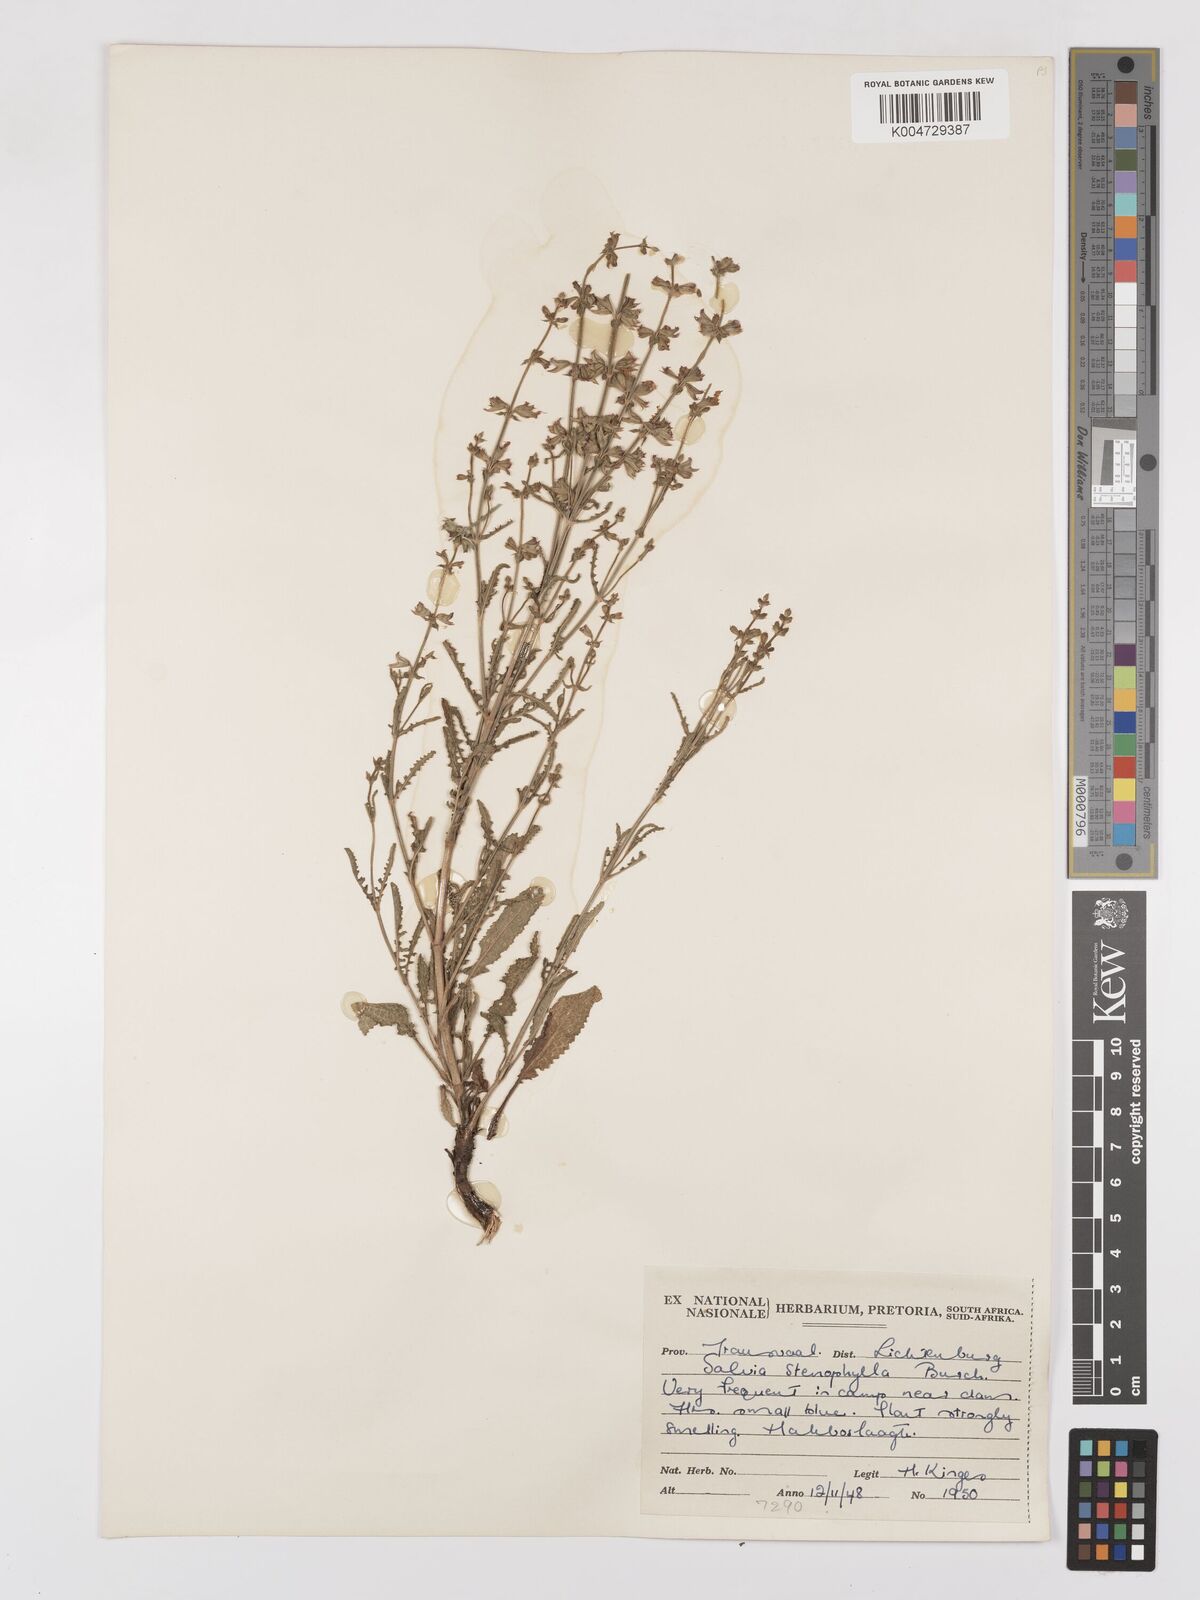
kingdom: Plantae
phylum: Tracheophyta
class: Magnoliopsida
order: Lamiales
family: Lamiaceae
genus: Salvia
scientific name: Salvia stenophylla
